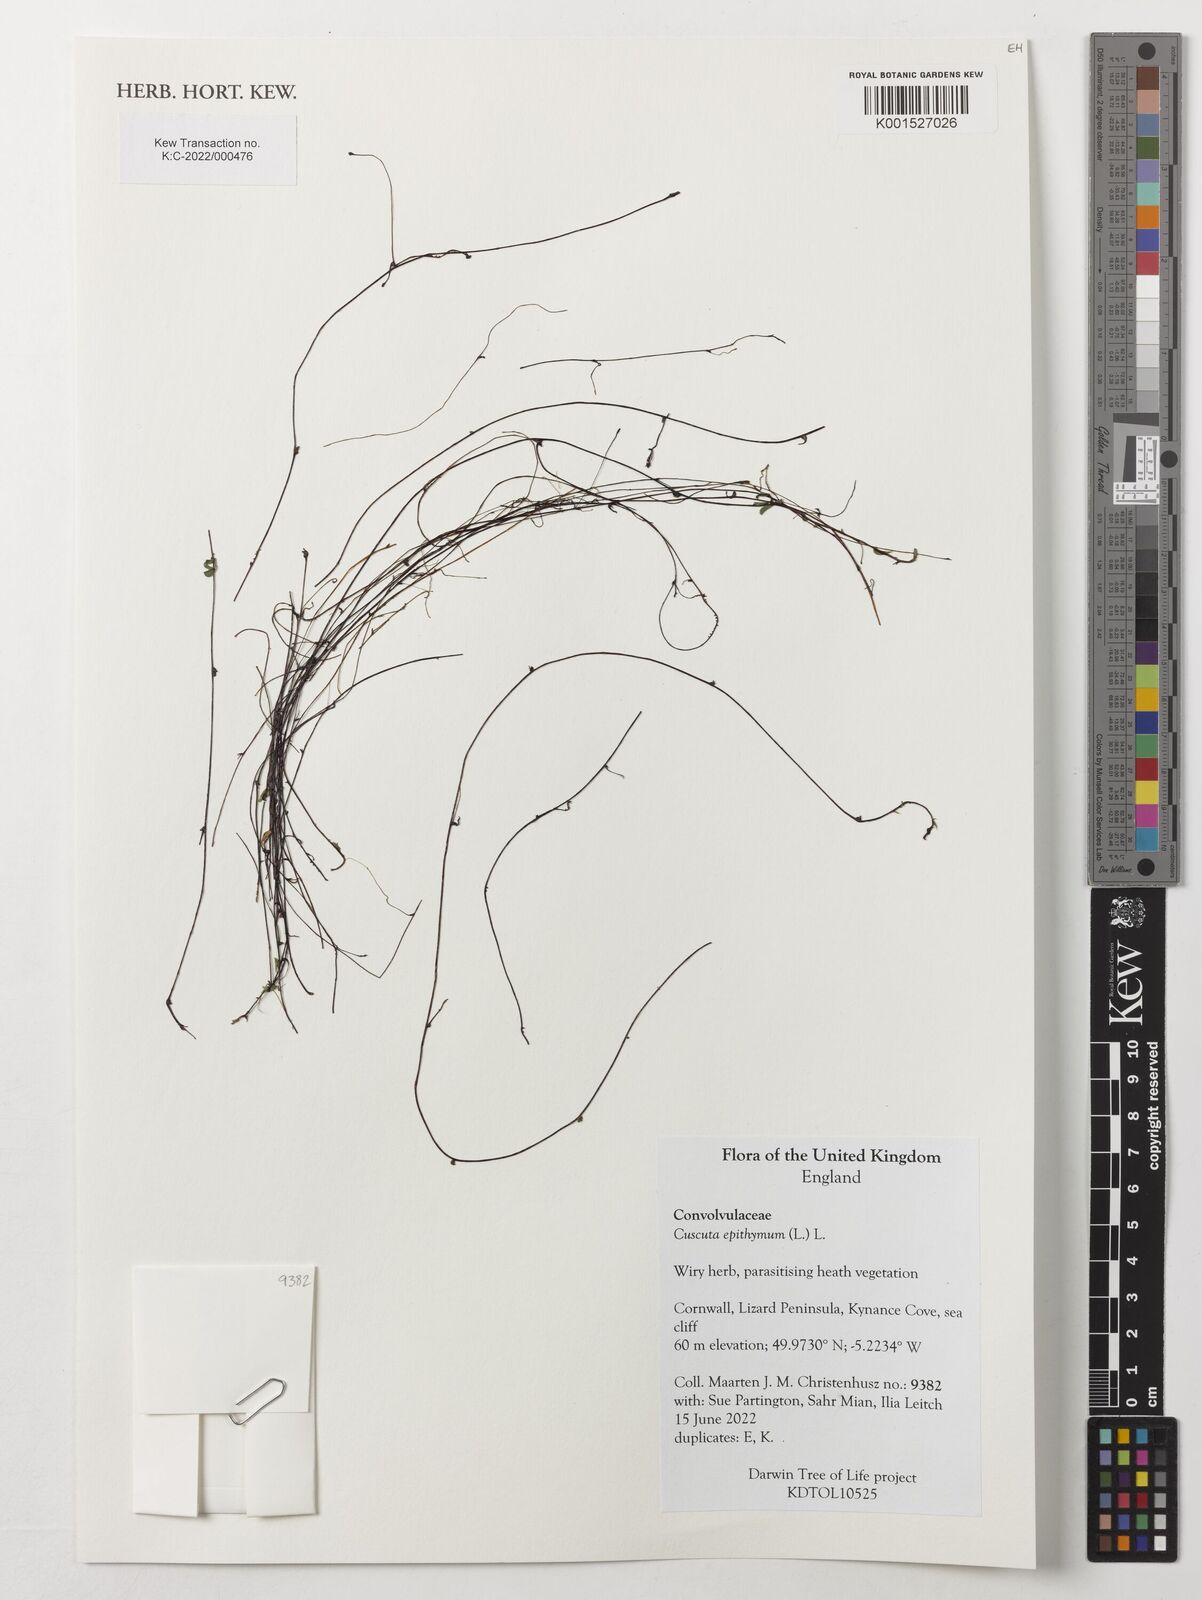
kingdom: Plantae
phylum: Tracheophyta
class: Magnoliopsida
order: Solanales
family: Convolvulaceae
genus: Cuscuta
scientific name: Cuscuta epithymum
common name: Clover dodder
